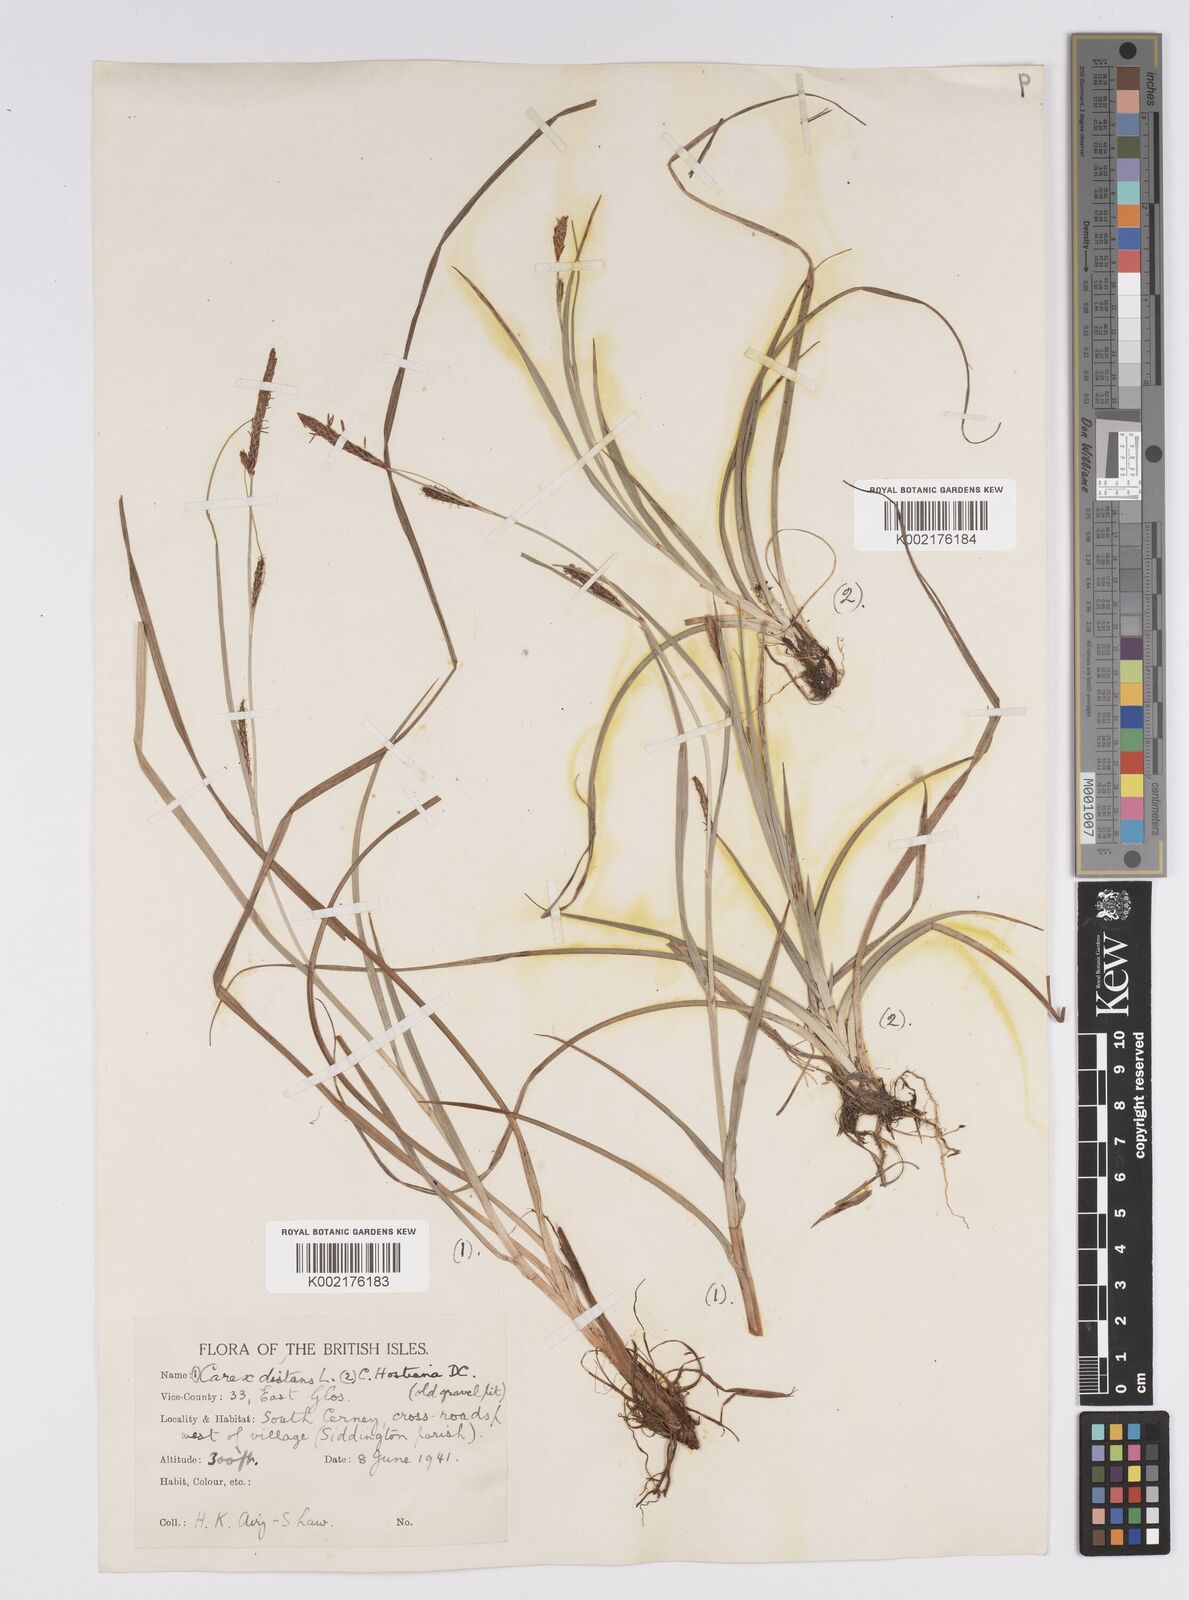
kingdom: Plantae
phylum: Tracheophyta
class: Liliopsida
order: Poales
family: Cyperaceae
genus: Carex
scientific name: Carex distans
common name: Distant sedge
